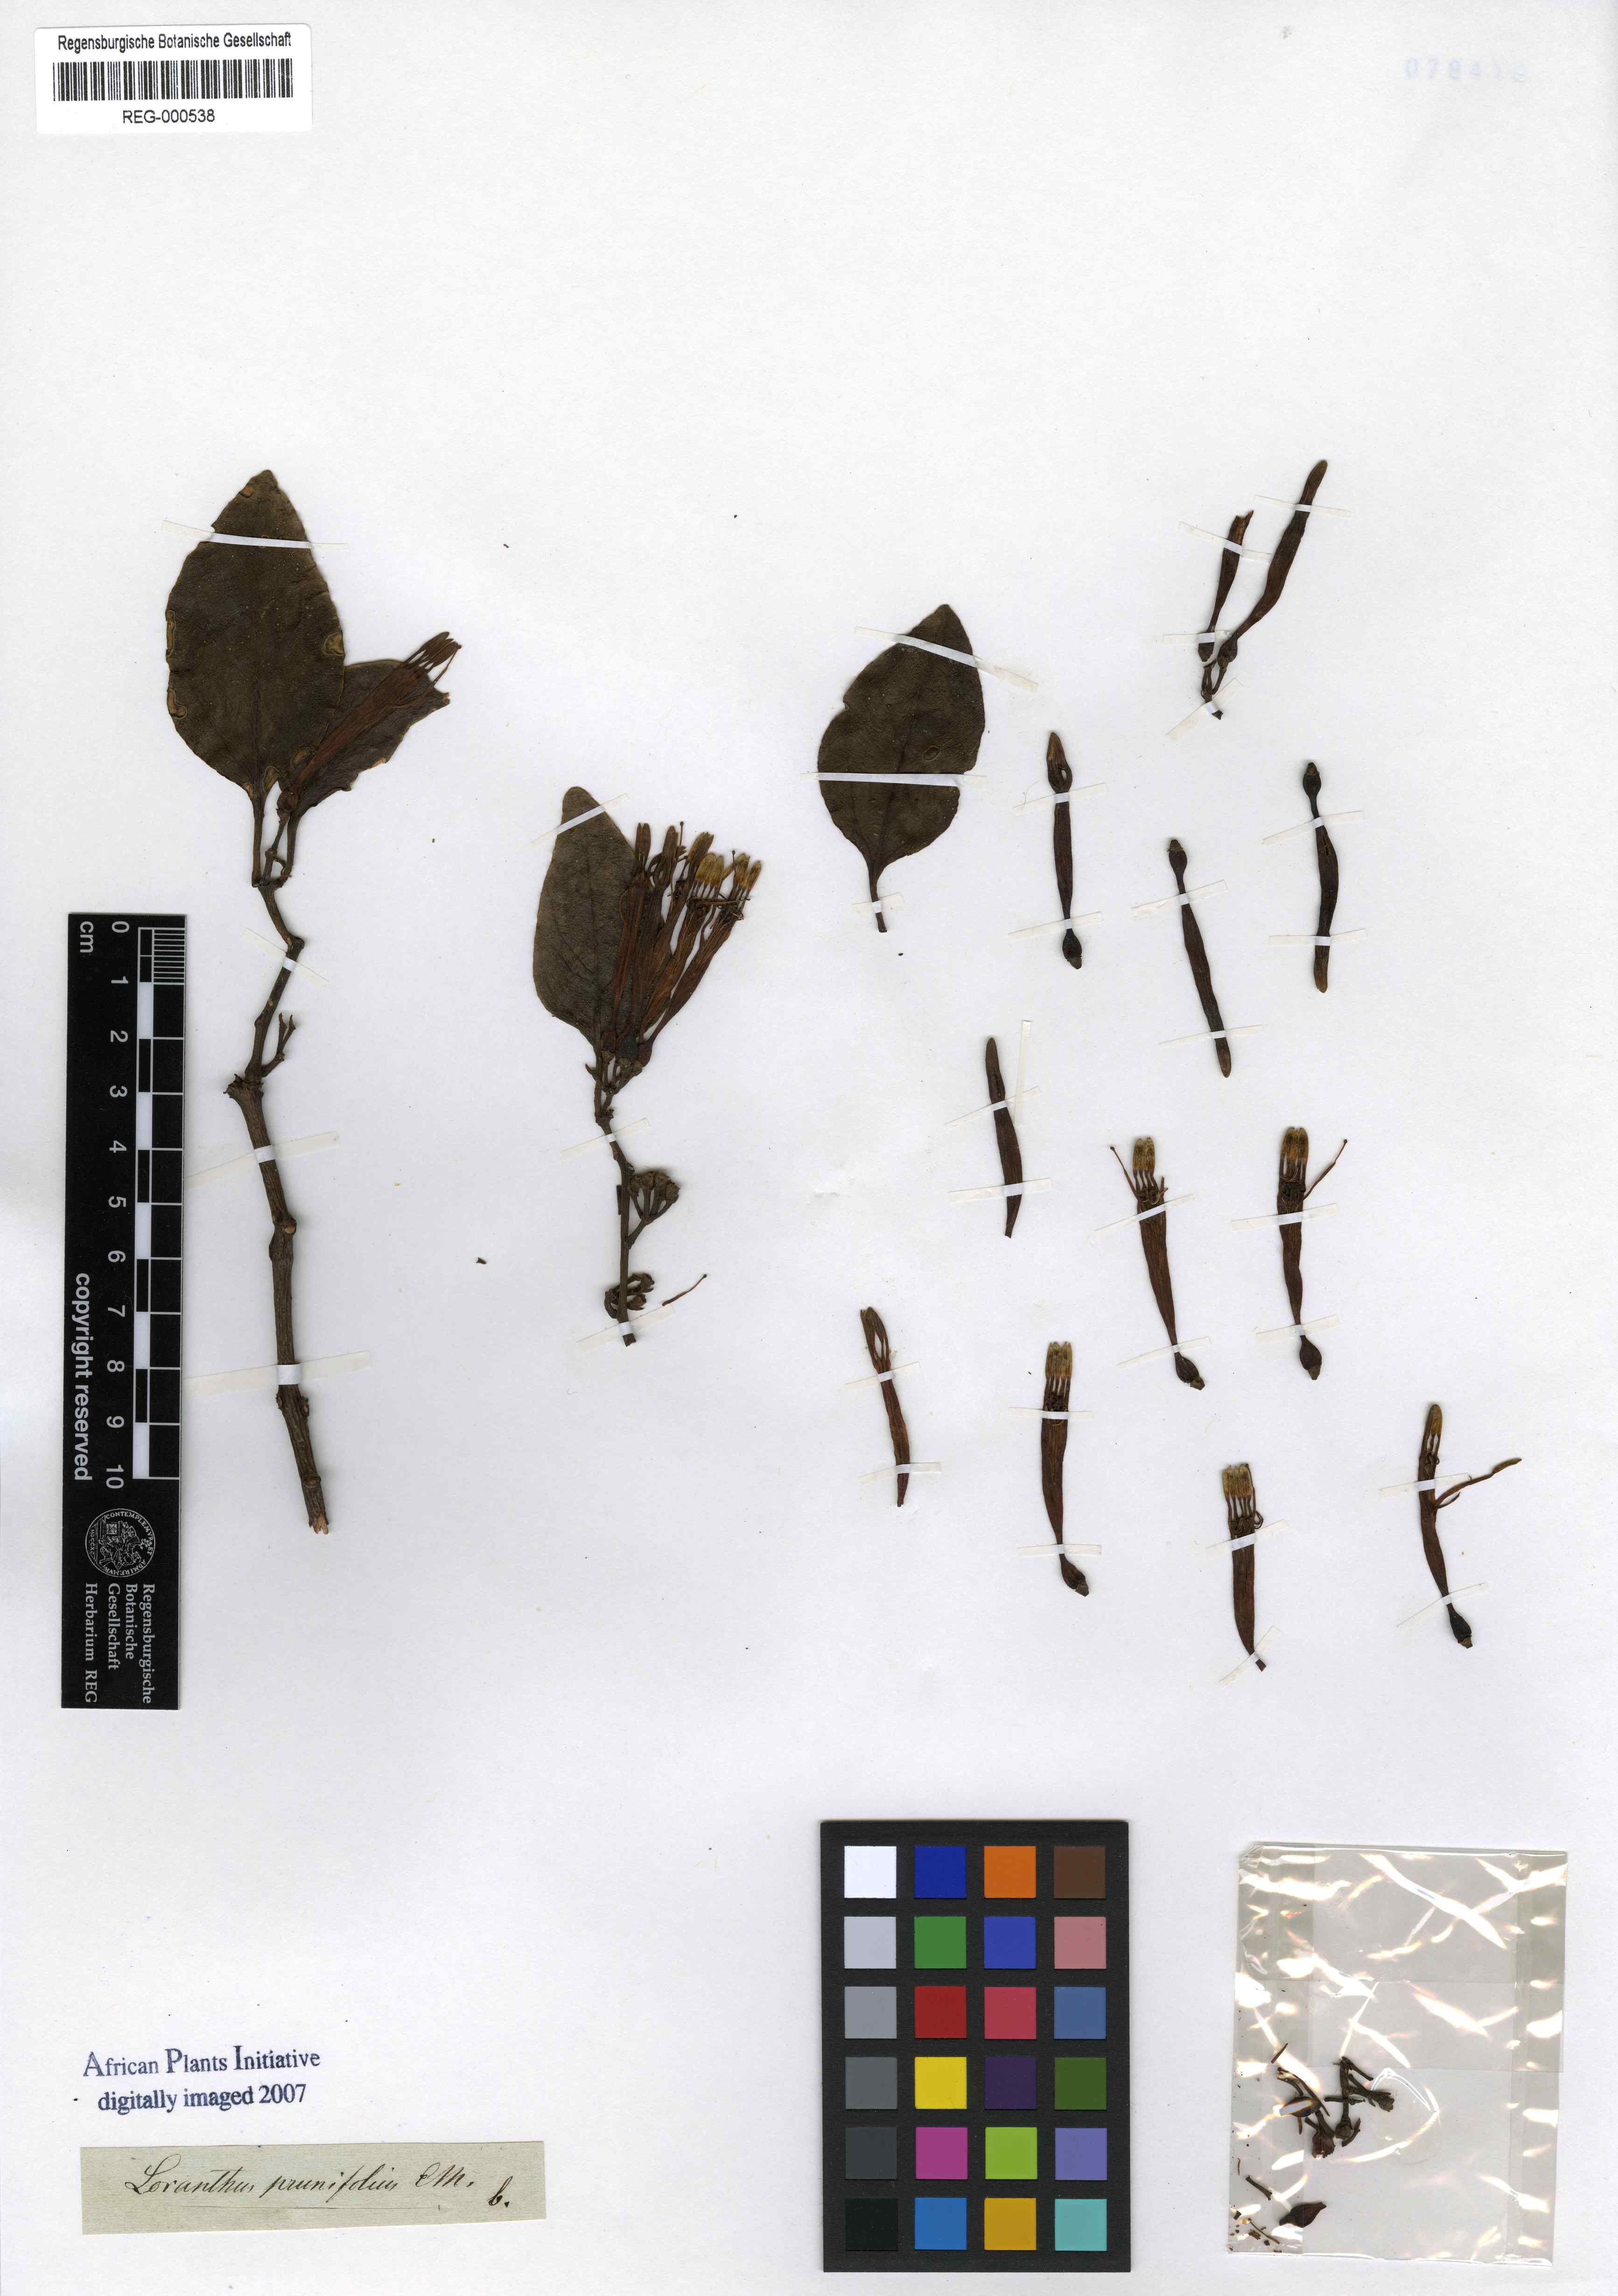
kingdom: Plantae
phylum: Tracheophyta
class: Magnoliopsida
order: Santalales
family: Loranthaceae
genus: Agelanthus
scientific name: Agelanthus prunifolius
